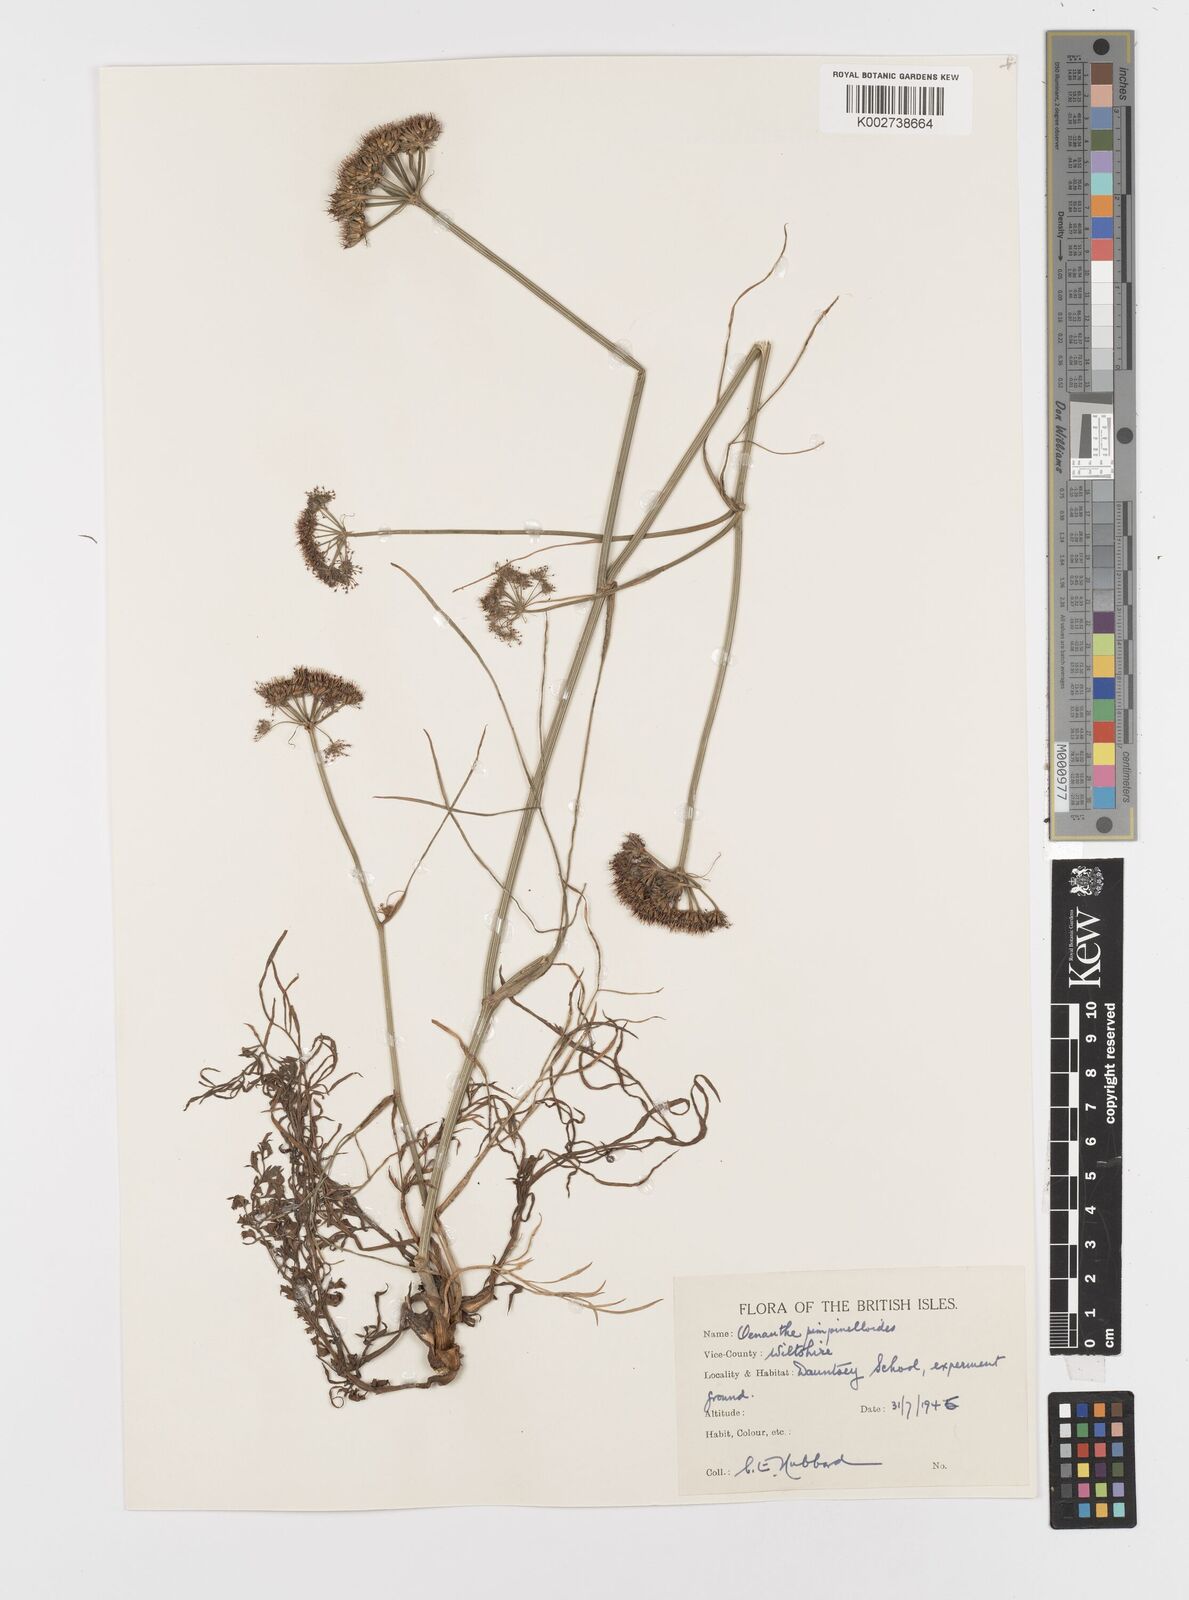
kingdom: Plantae
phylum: Tracheophyta
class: Magnoliopsida
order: Apiales
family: Apiaceae
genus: Oenanthe
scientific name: Oenanthe pimpinelloides
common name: Corky-fruited water-dropwort
